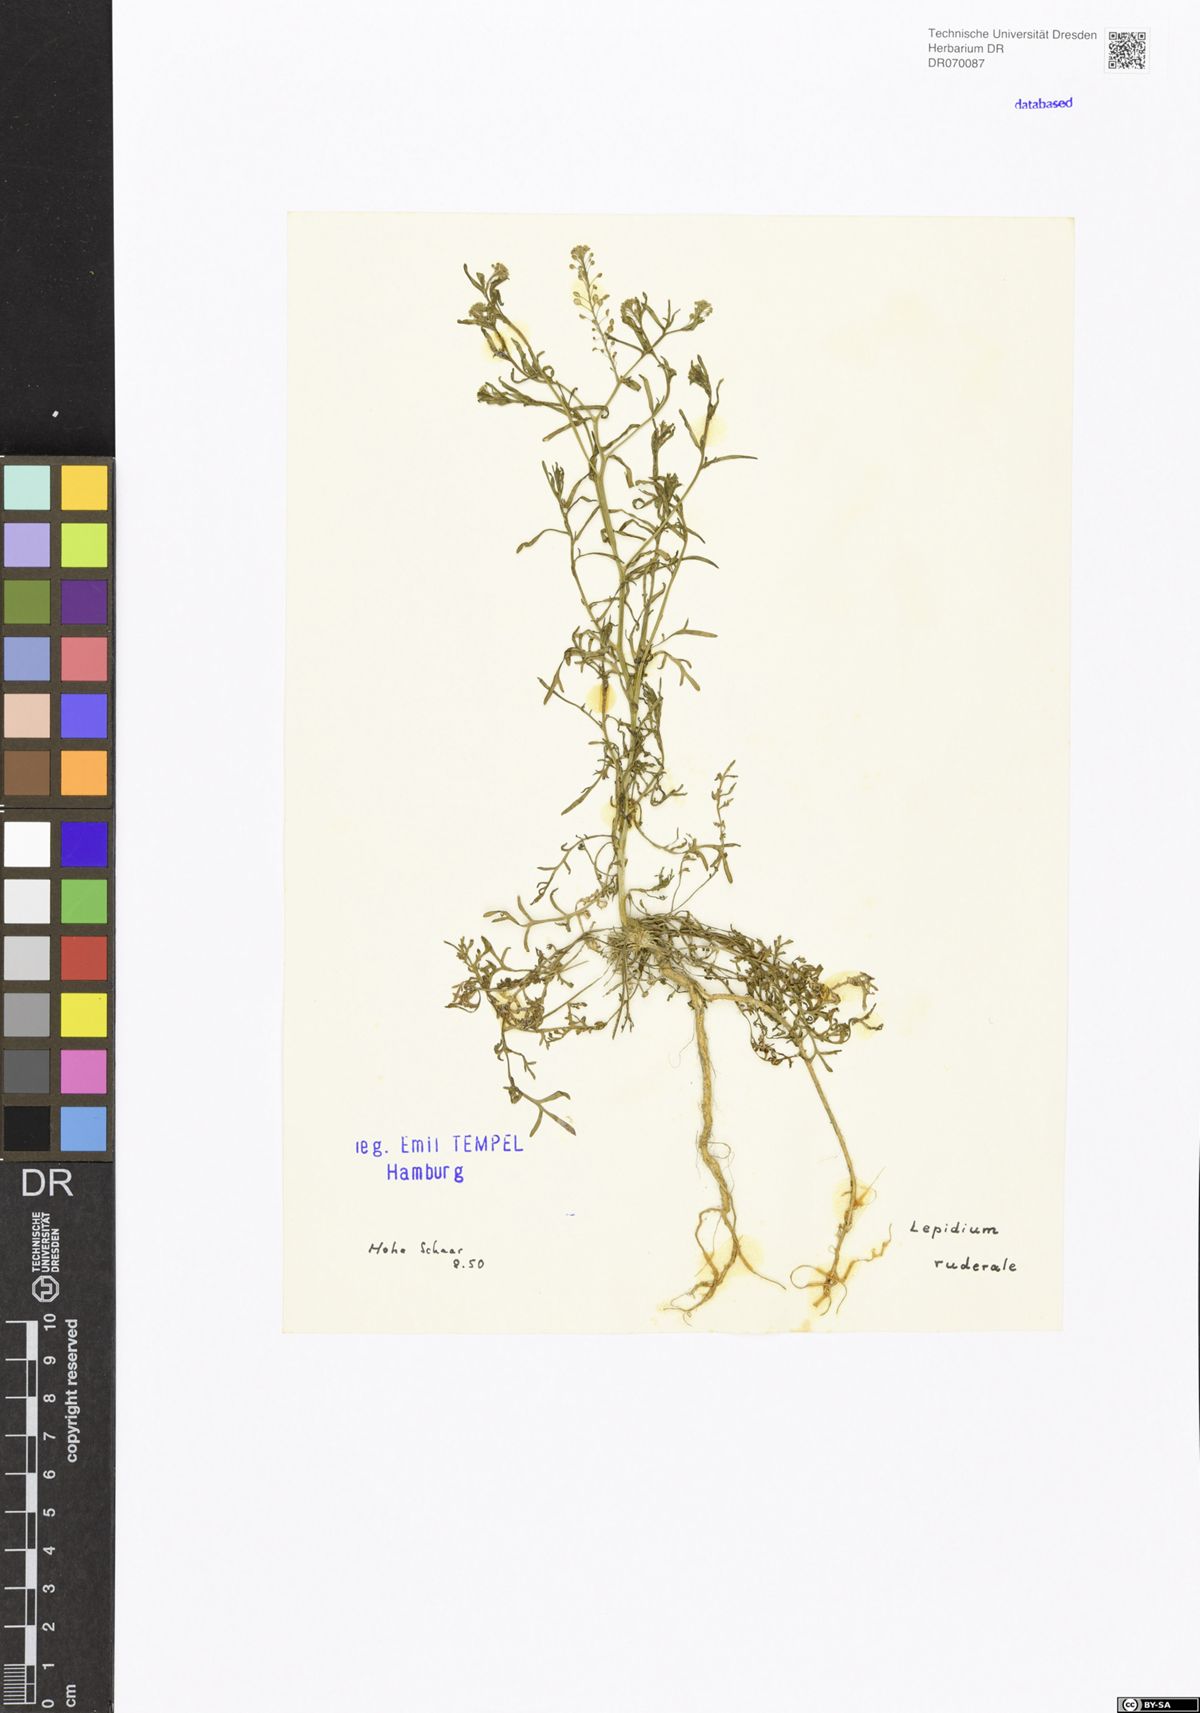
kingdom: Plantae
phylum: Tracheophyta
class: Magnoliopsida
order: Brassicales
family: Brassicaceae
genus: Lepidium
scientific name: Lepidium ruderale
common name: Narrow-leaved pepperwort
